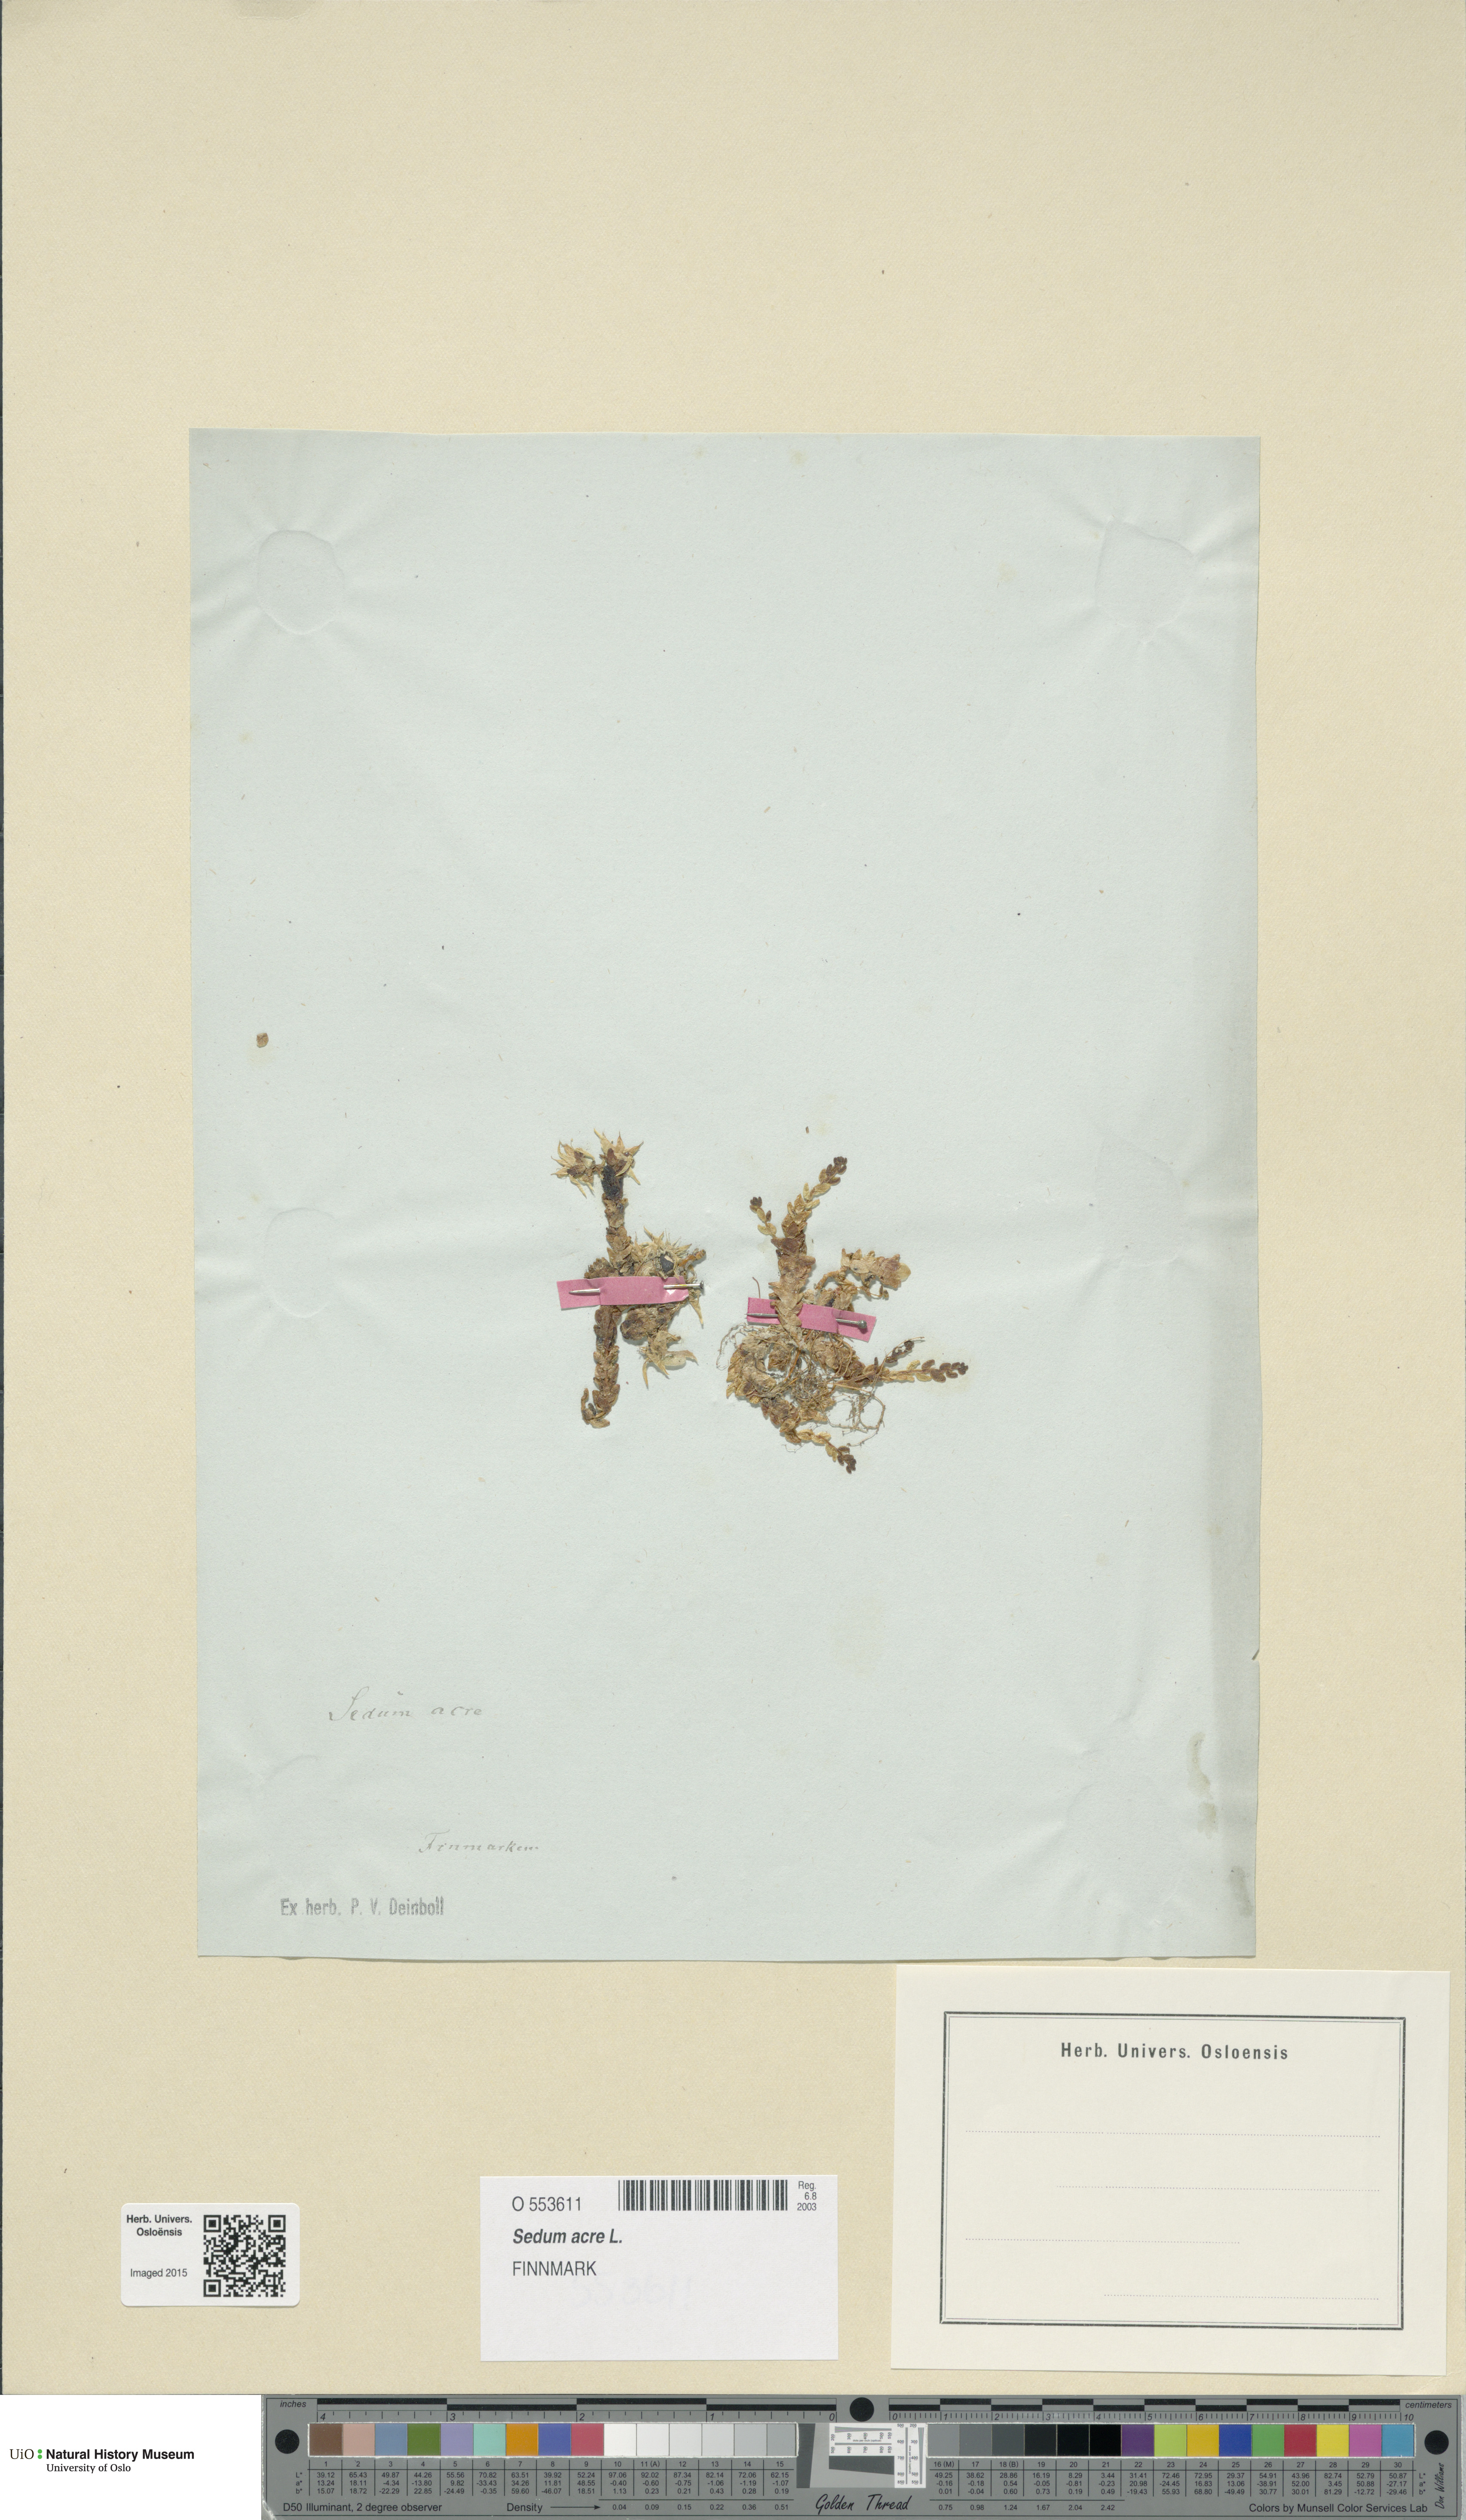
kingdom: Plantae
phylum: Tracheophyta
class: Magnoliopsida
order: Saxifragales
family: Crassulaceae
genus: Sedum
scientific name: Sedum acre
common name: Biting stonecrop
